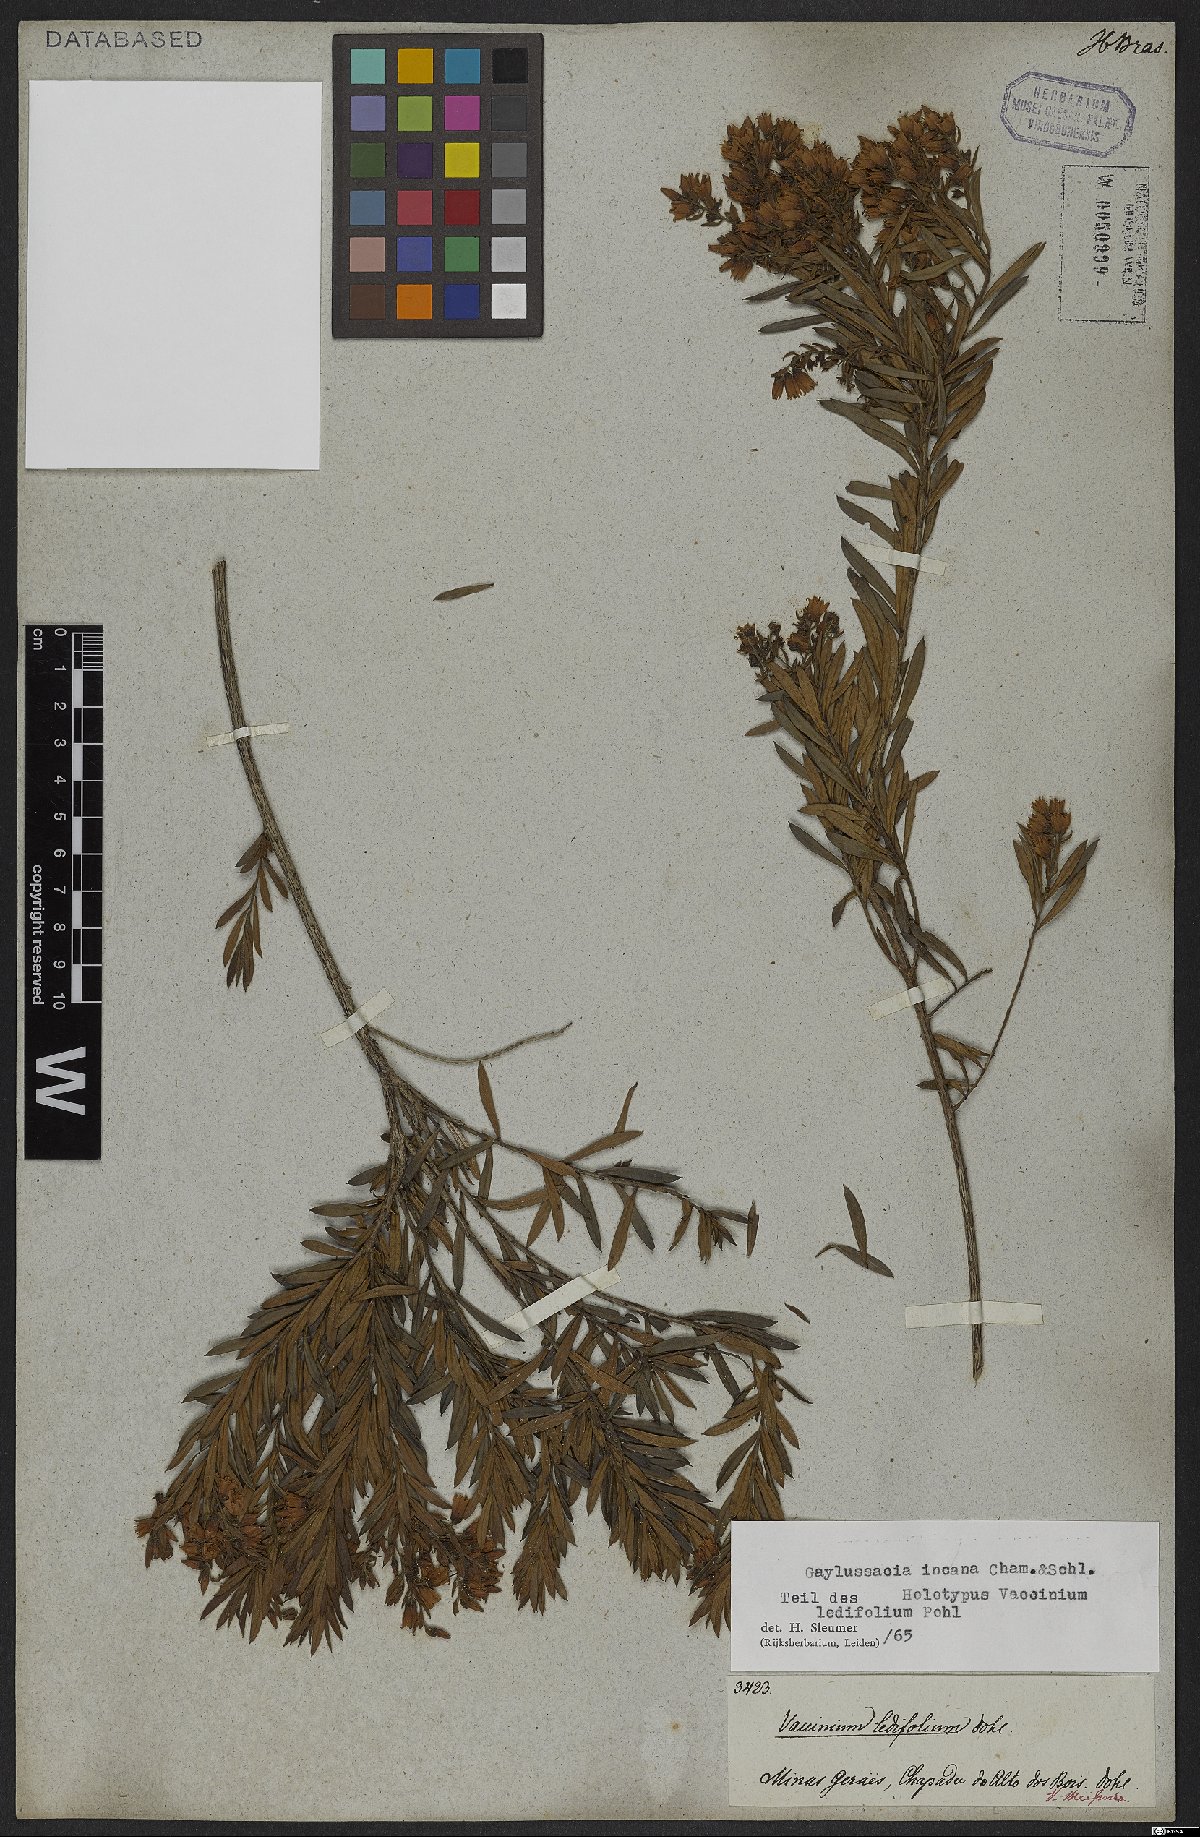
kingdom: Plantae
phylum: Tracheophyta
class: Magnoliopsida
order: Ericales
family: Ericaceae
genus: Gaylussacia
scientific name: Gaylussacia incana
